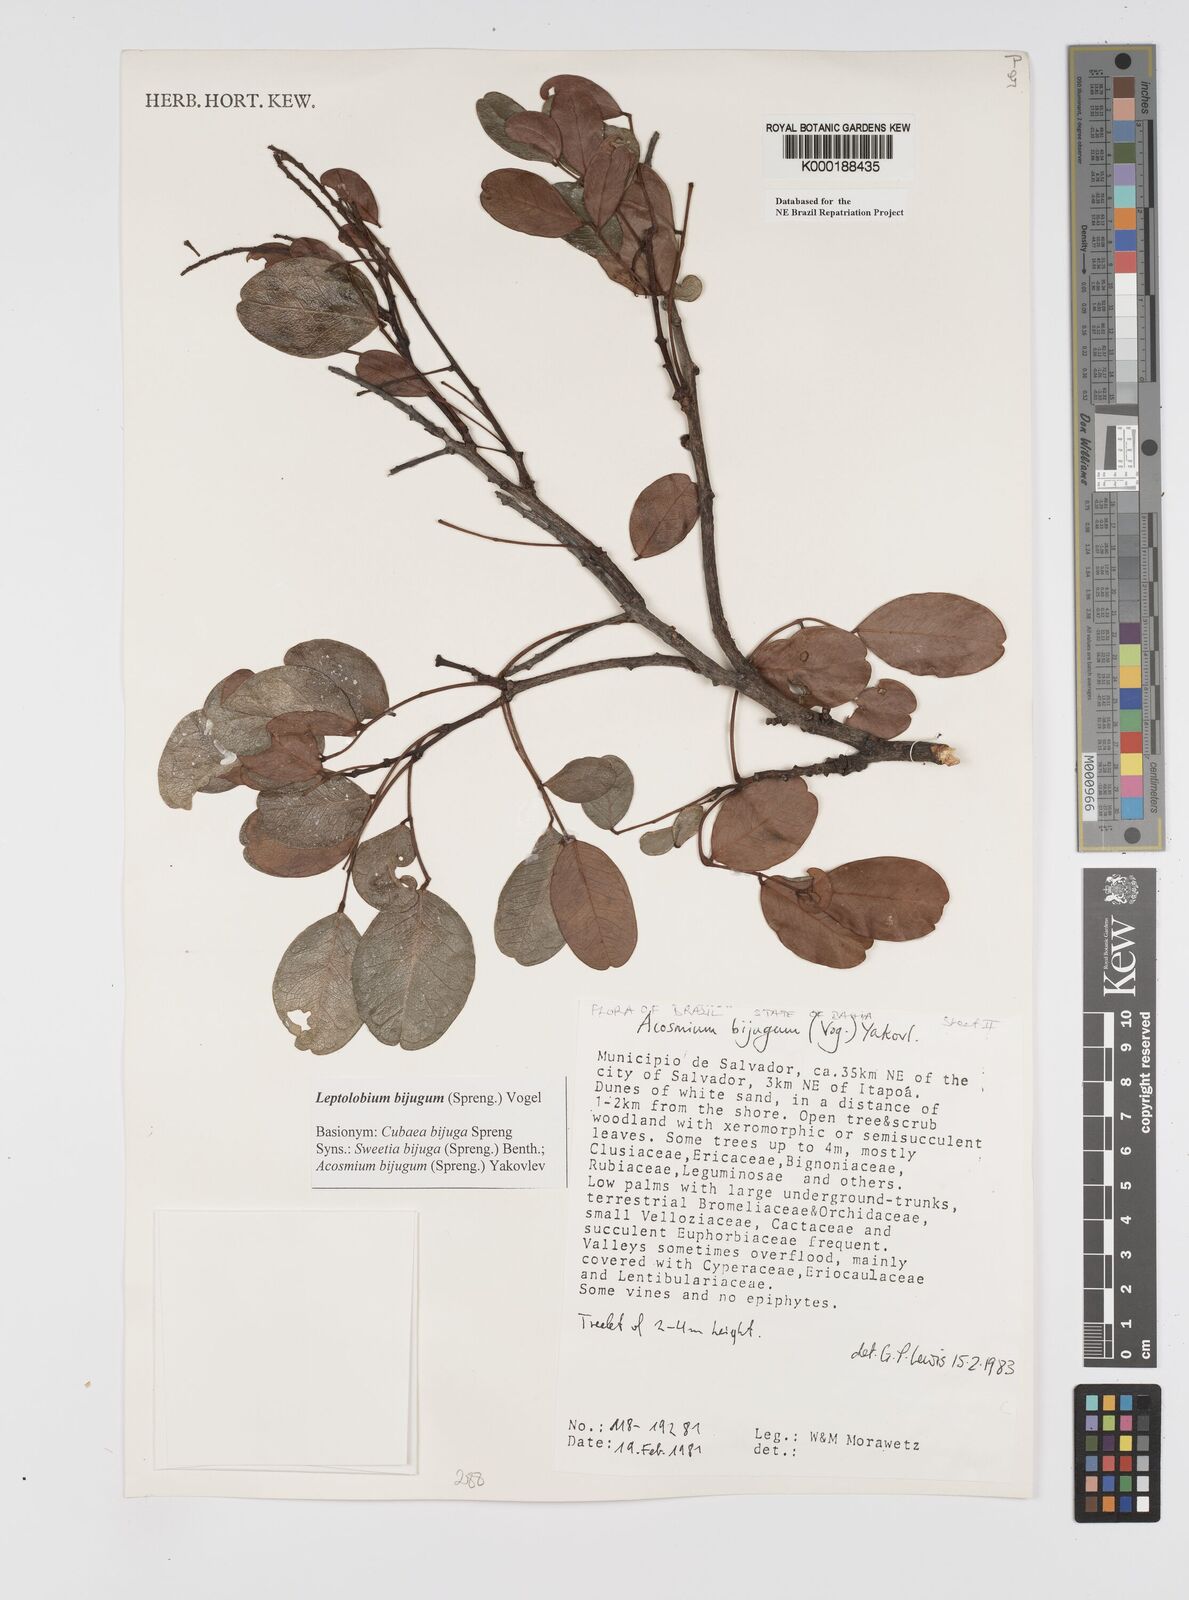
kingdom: Plantae
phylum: Tracheophyta
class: Magnoliopsida
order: Fabales
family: Fabaceae
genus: Leptolobium
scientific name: Leptolobium bijugum
